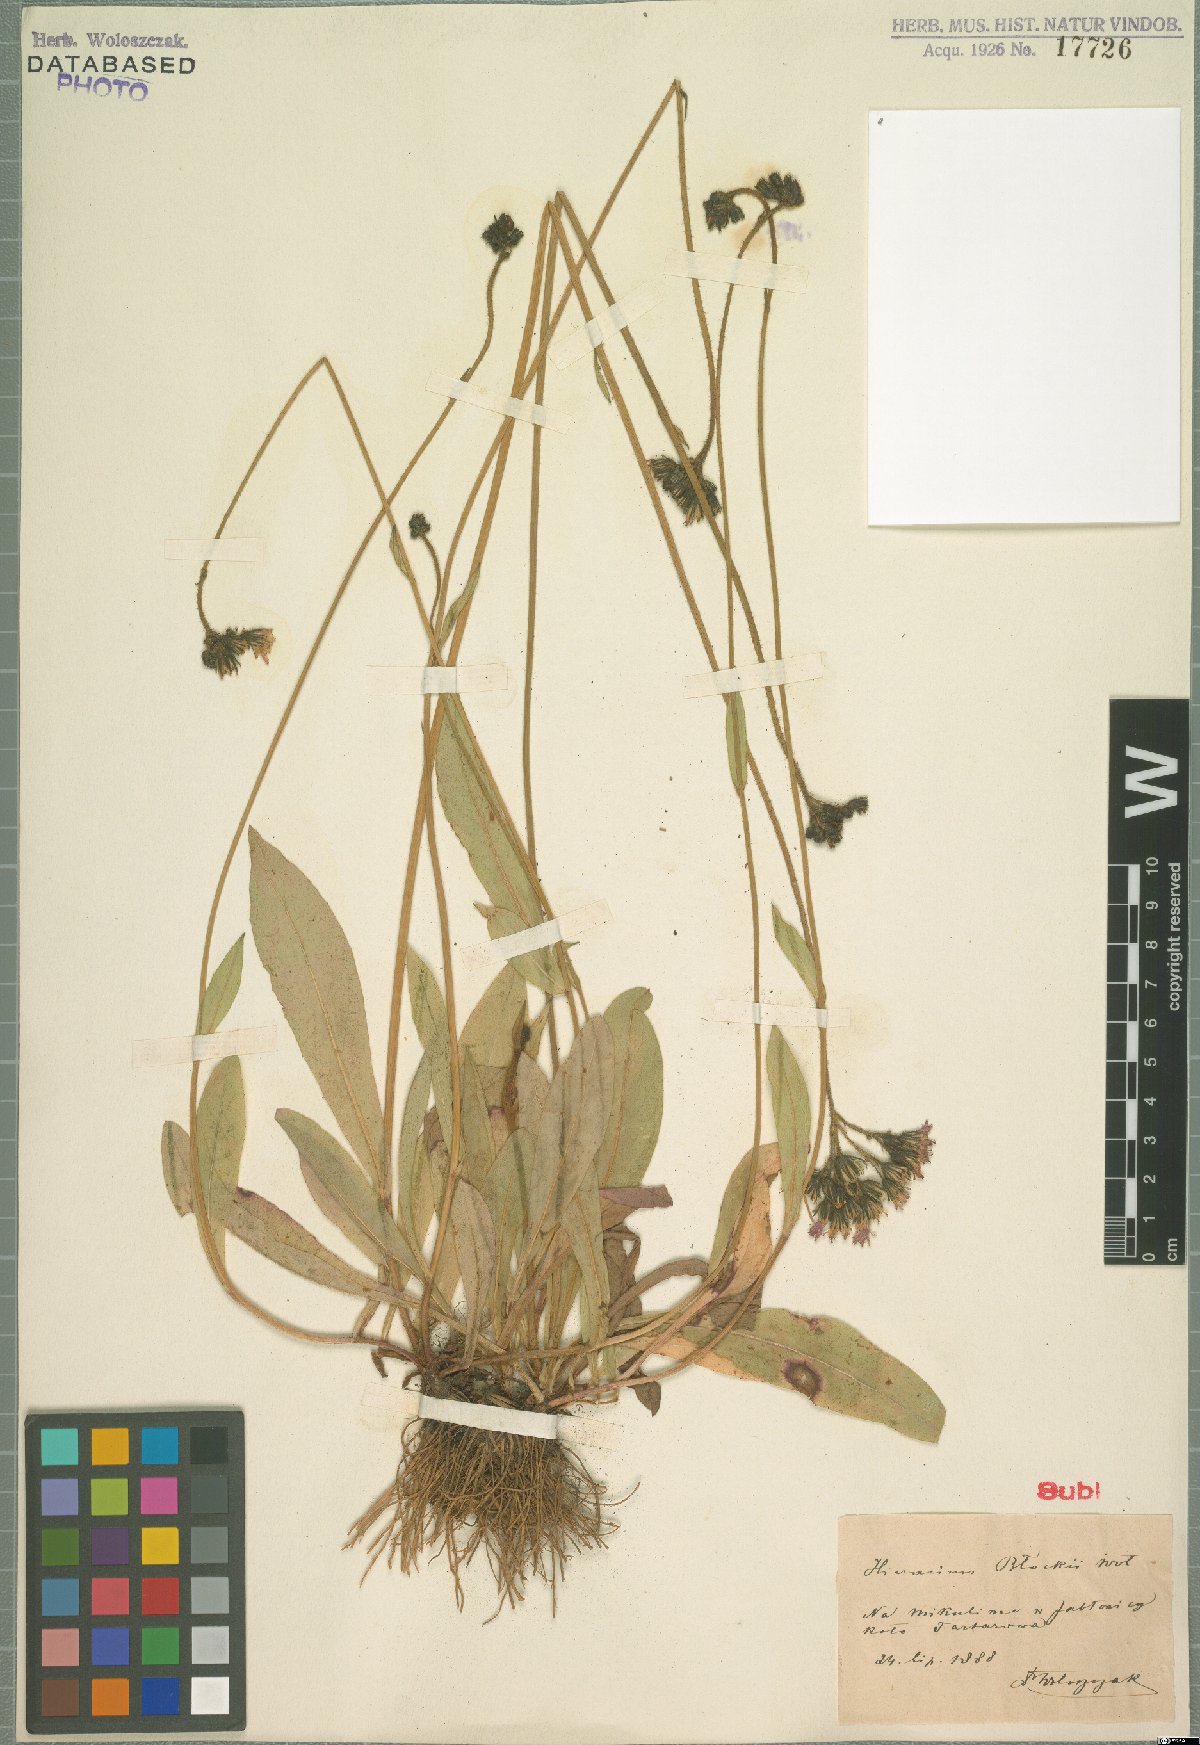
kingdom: Plantae
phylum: Tracheophyta
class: Magnoliopsida
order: Asterales
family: Asteraceae
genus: Pilosella
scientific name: Pilosella guthnikiana
